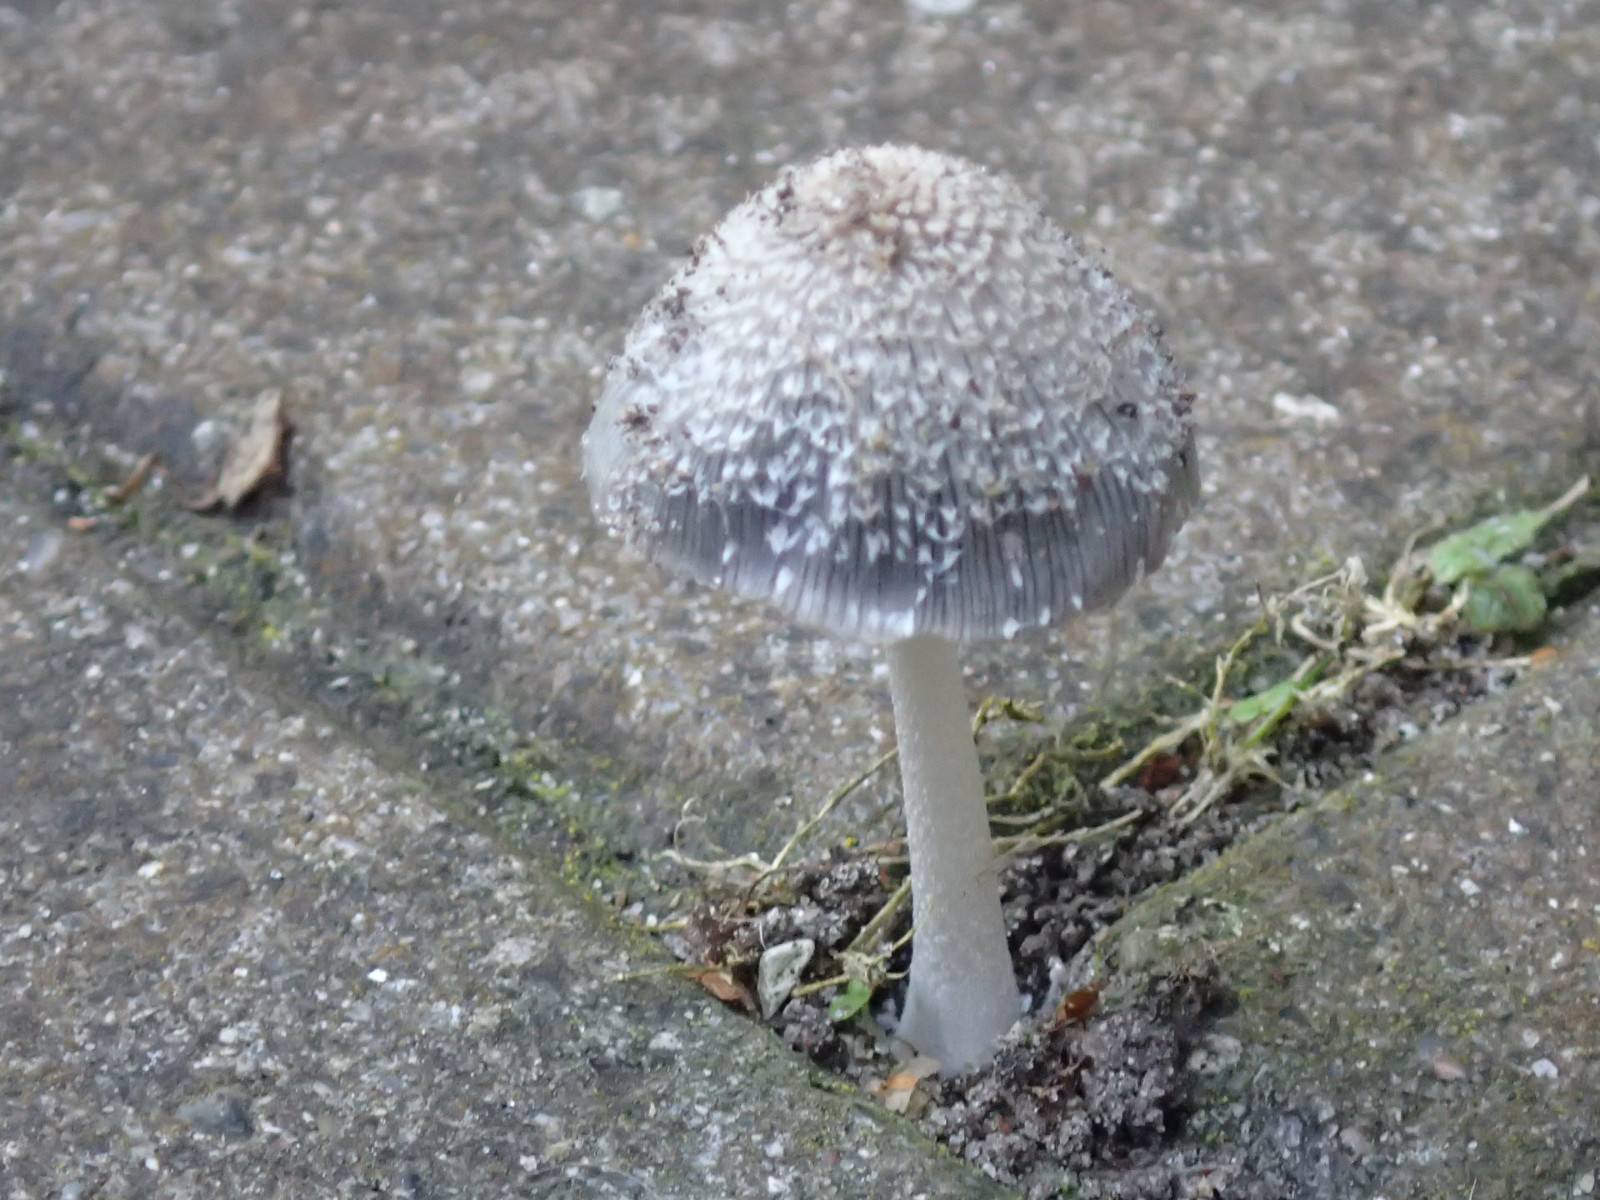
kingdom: Fungi
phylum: Basidiomycota
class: Agaricomycetes
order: Agaricales
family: Psathyrellaceae
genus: Coprinopsis
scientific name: Coprinopsis
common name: blækhat
